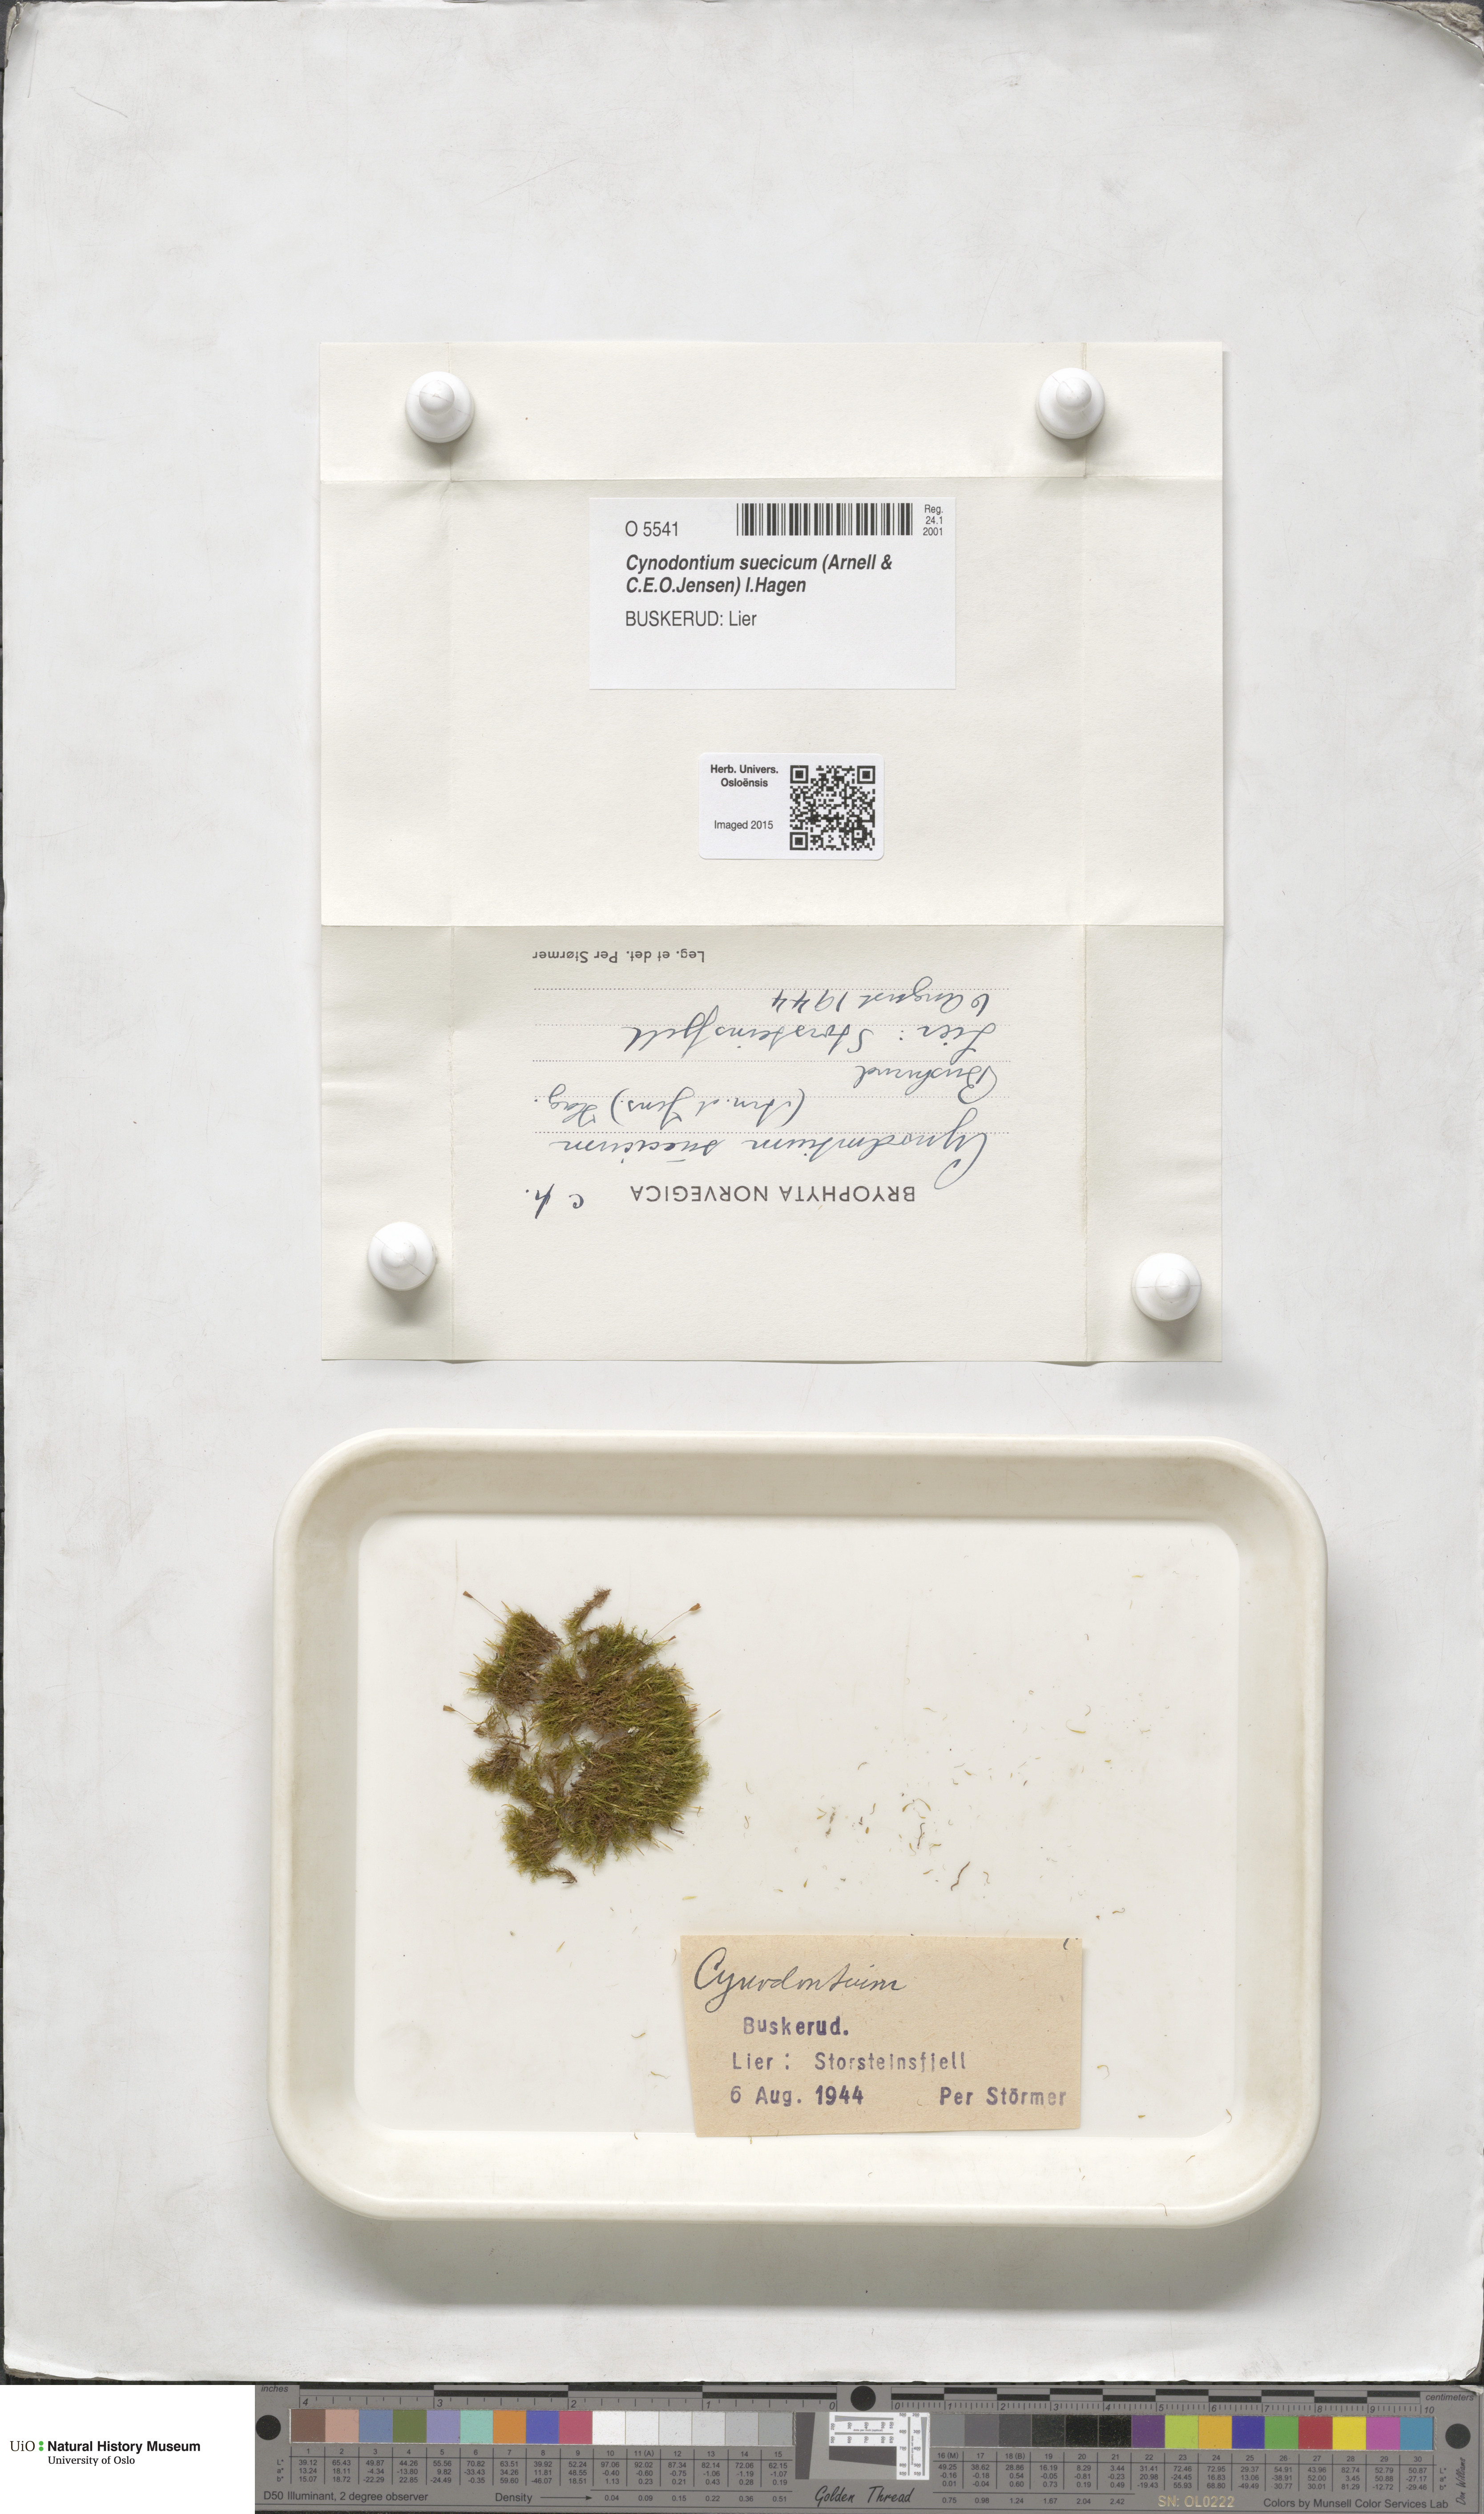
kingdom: Plantae
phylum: Bryophyta
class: Bryopsida
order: Dicranales
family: Rhabdoweisiaceae
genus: Cynodontium
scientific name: Cynodontium suecicum
